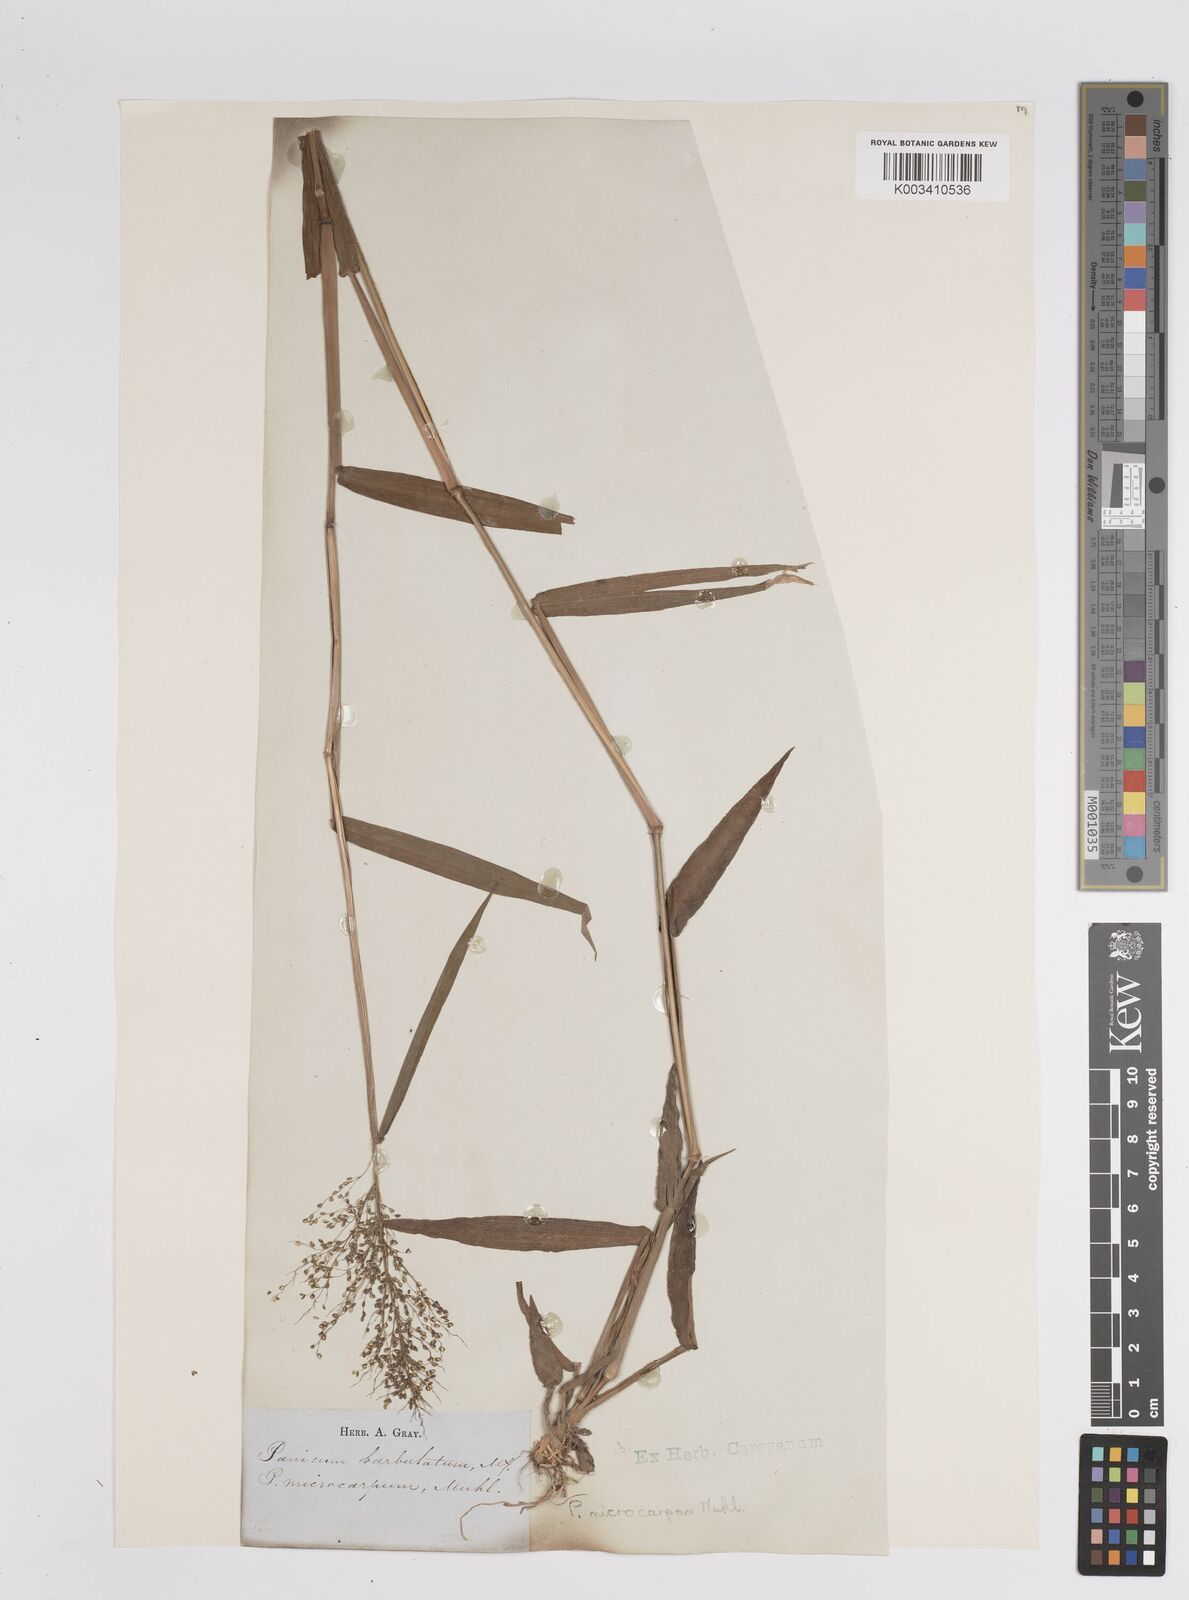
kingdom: Plantae
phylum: Tracheophyta
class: Liliopsida
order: Poales
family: Poaceae
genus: Dichanthelium
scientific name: Dichanthelium polyanthes
